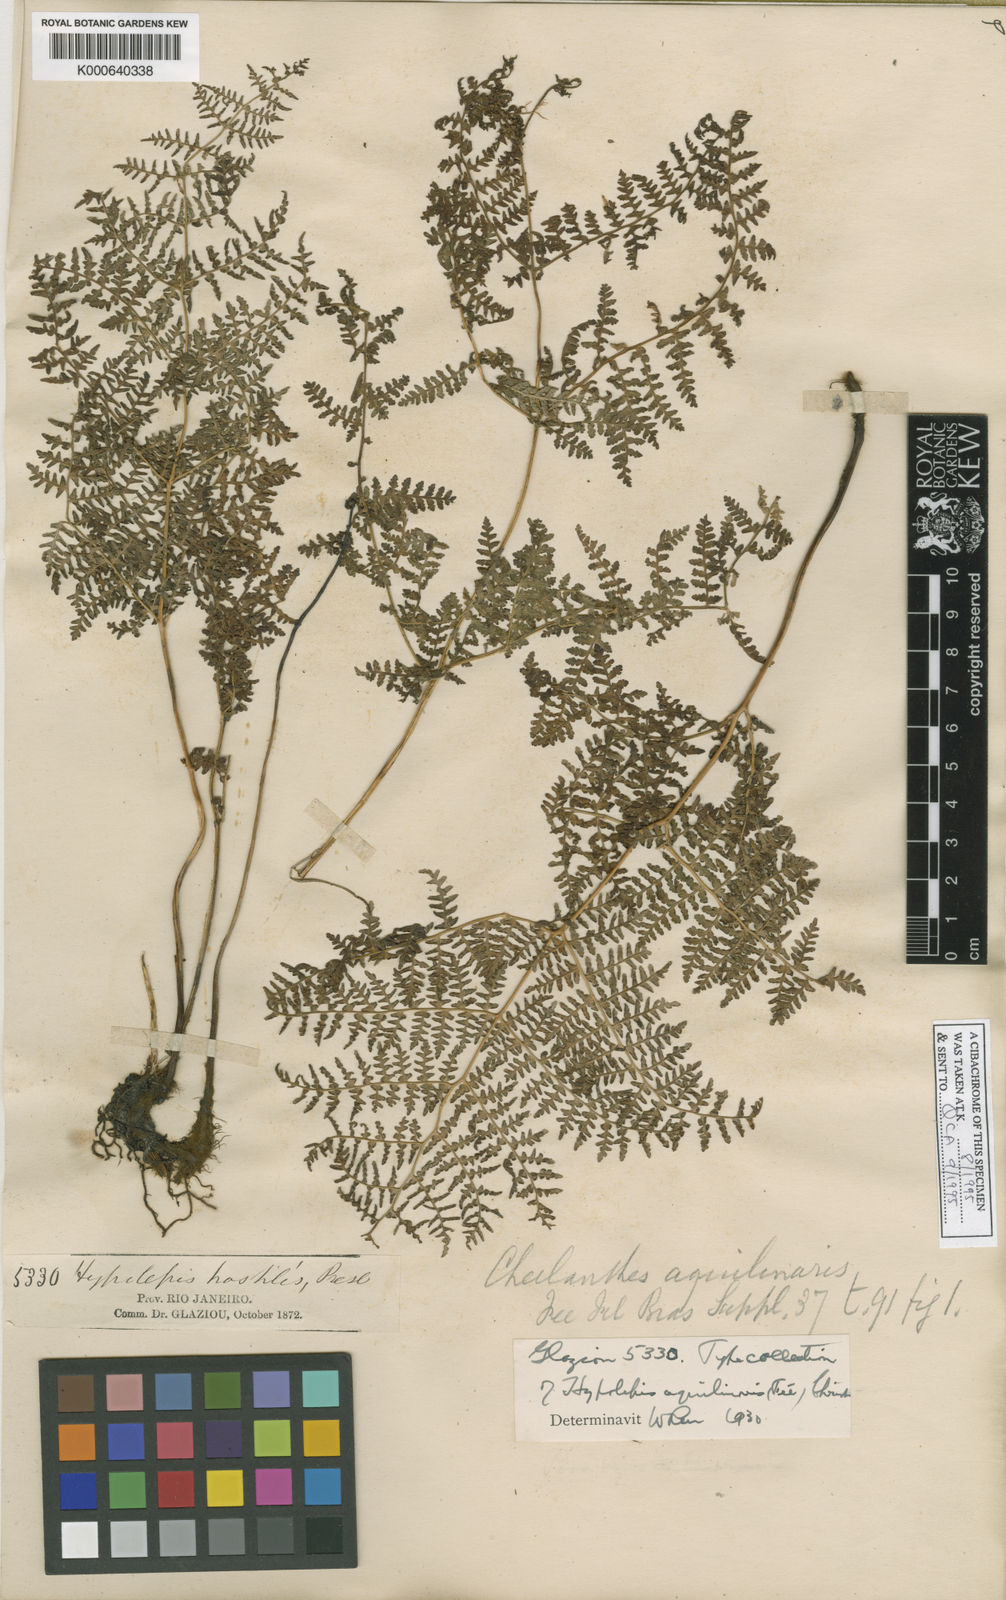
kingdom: Plantae
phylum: Tracheophyta
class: Polypodiopsida
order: Polypodiales
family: Dennstaedtiaceae
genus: Pteridium
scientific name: Pteridium esculentum
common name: Bracken fern
